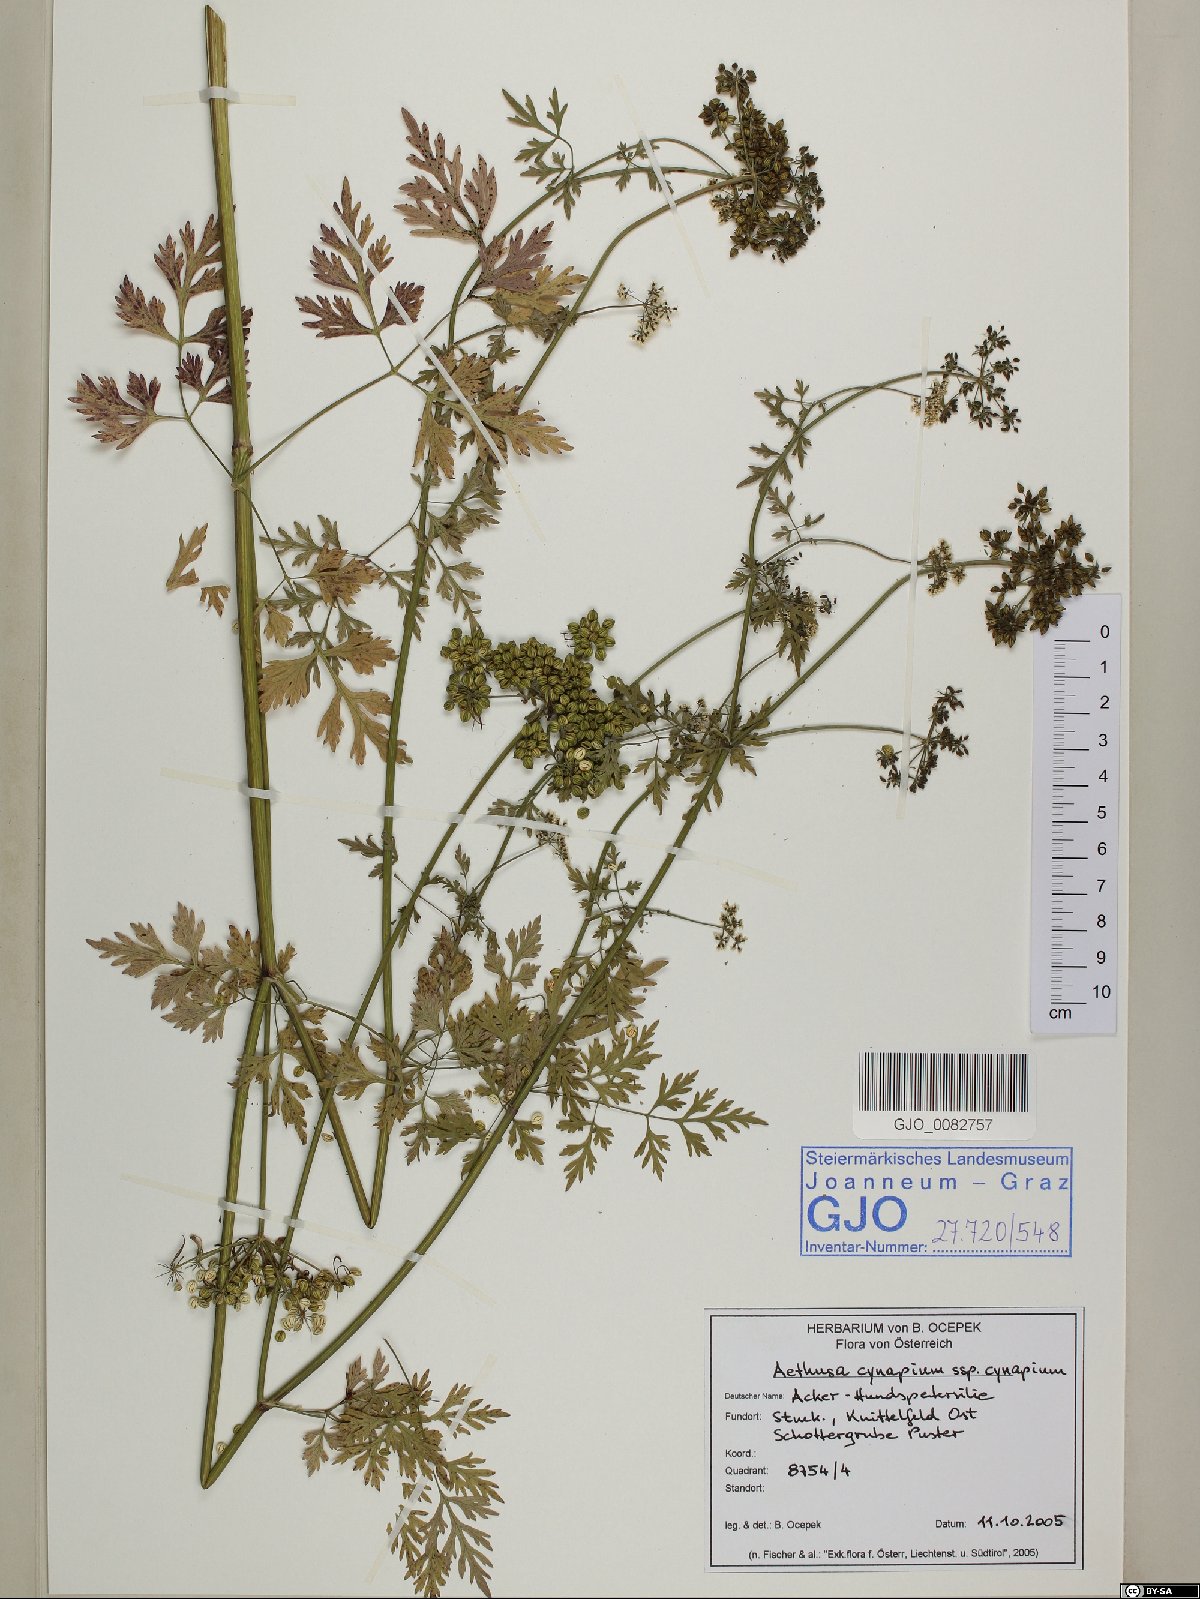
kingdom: Plantae
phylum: Tracheophyta
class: Magnoliopsida
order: Apiales
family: Apiaceae
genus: Aethusa
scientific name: Aethusa cynapium
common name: Fool's parsley
